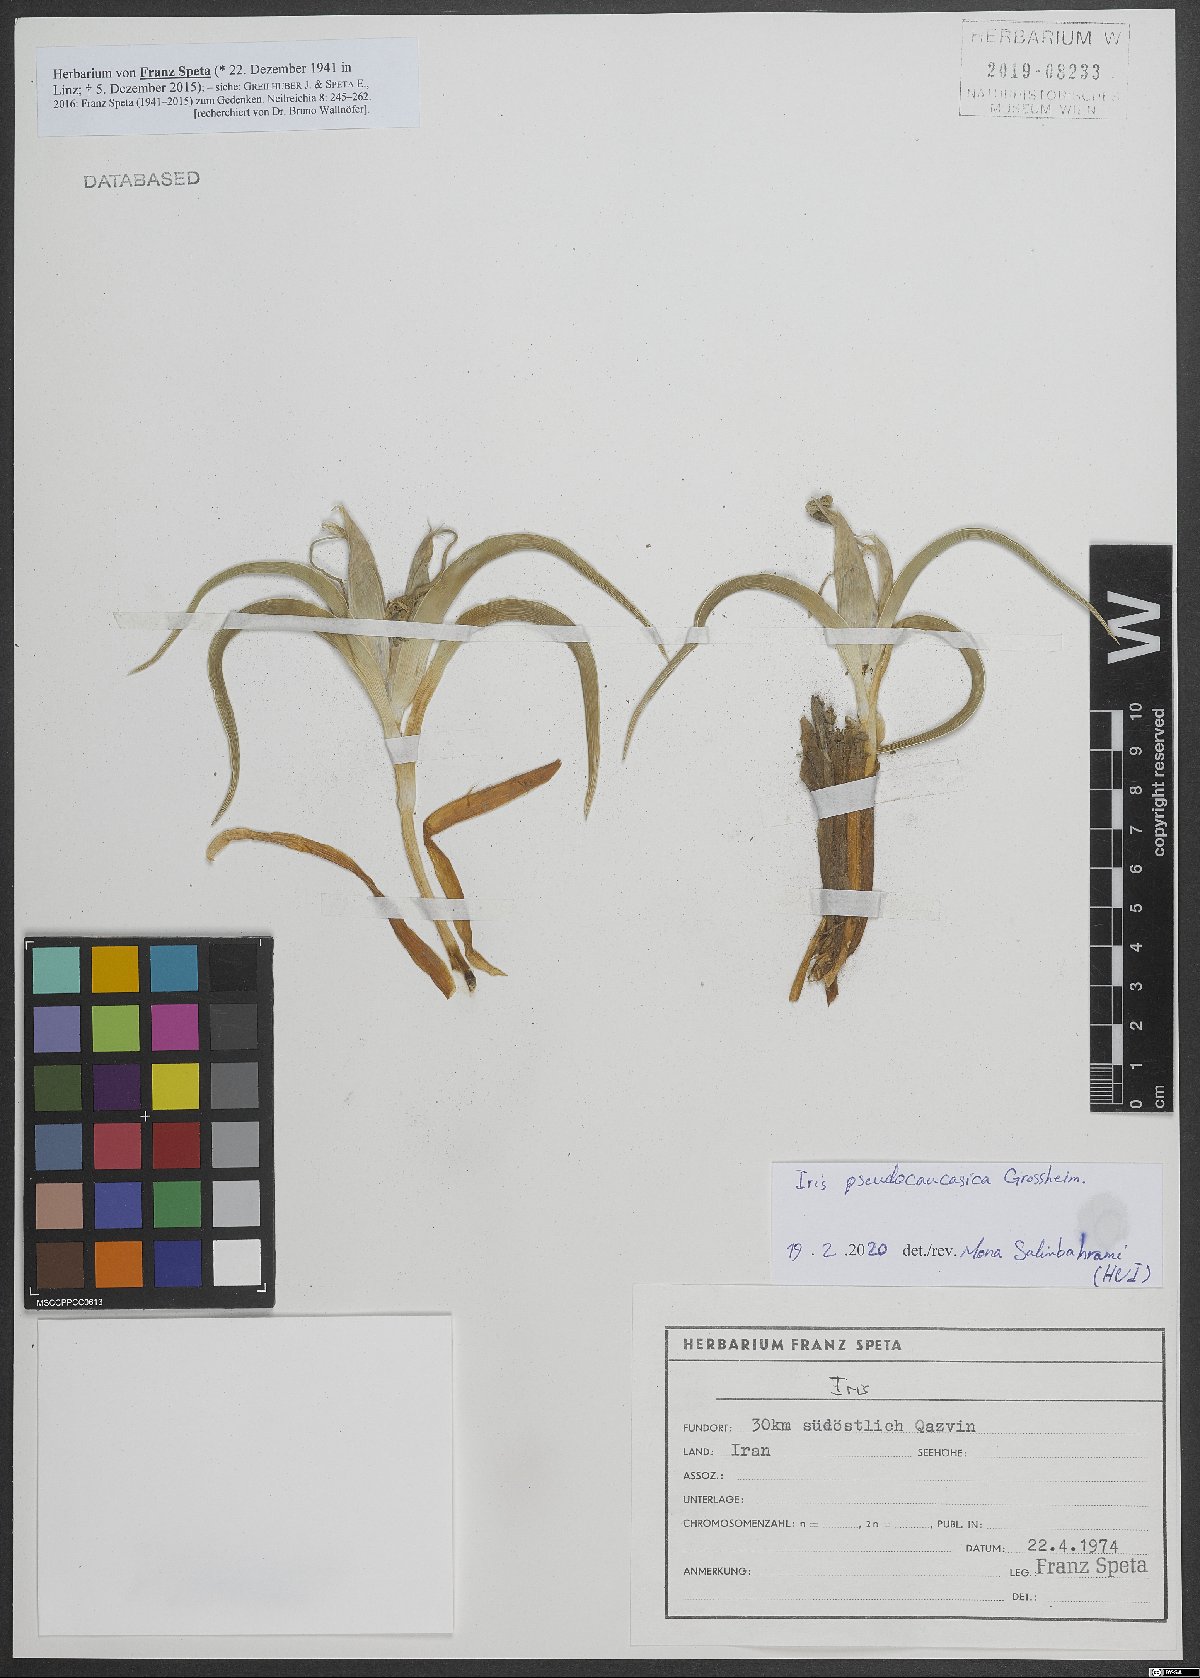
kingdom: Plantae
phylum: Tracheophyta
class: Liliopsida
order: Asparagales
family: Iridaceae
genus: Iris
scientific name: Iris pseudocaucasica
